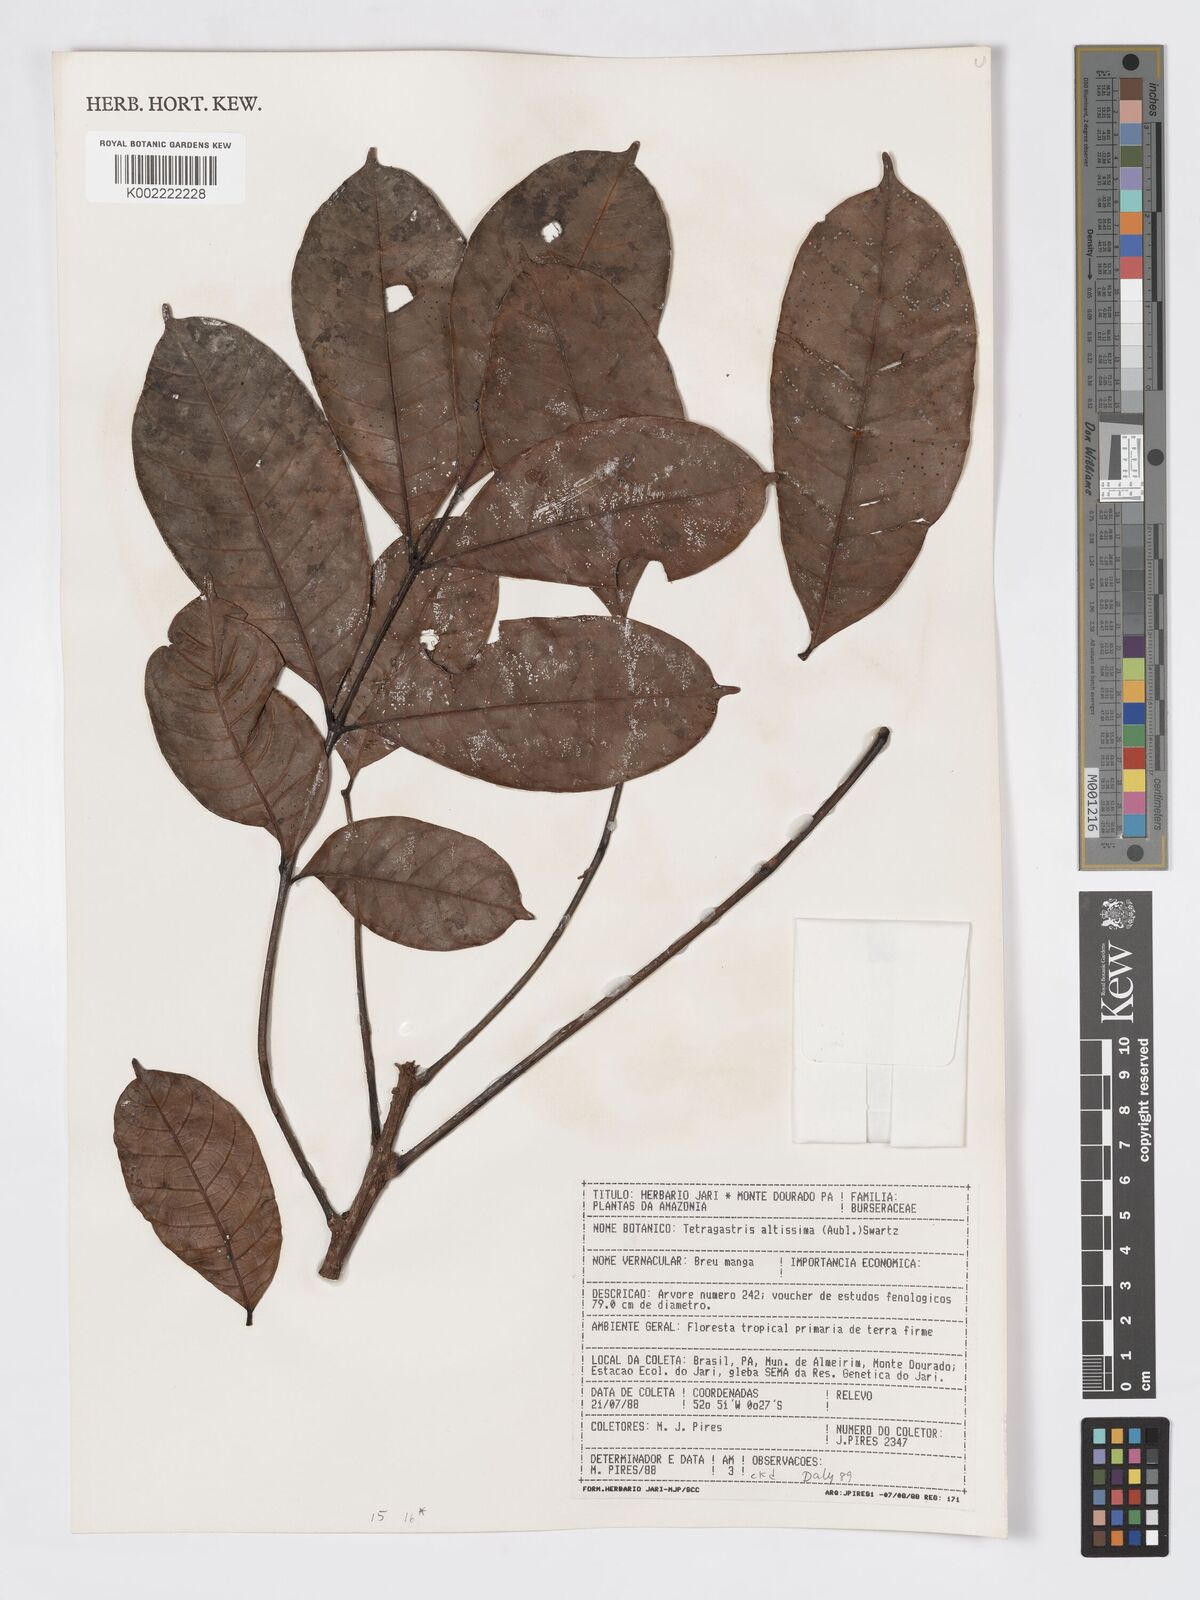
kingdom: Plantae
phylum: Tracheophyta
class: Magnoliopsida
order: Sapindales
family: Burseraceae
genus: Tetragastris
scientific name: Tetragastris altissima
